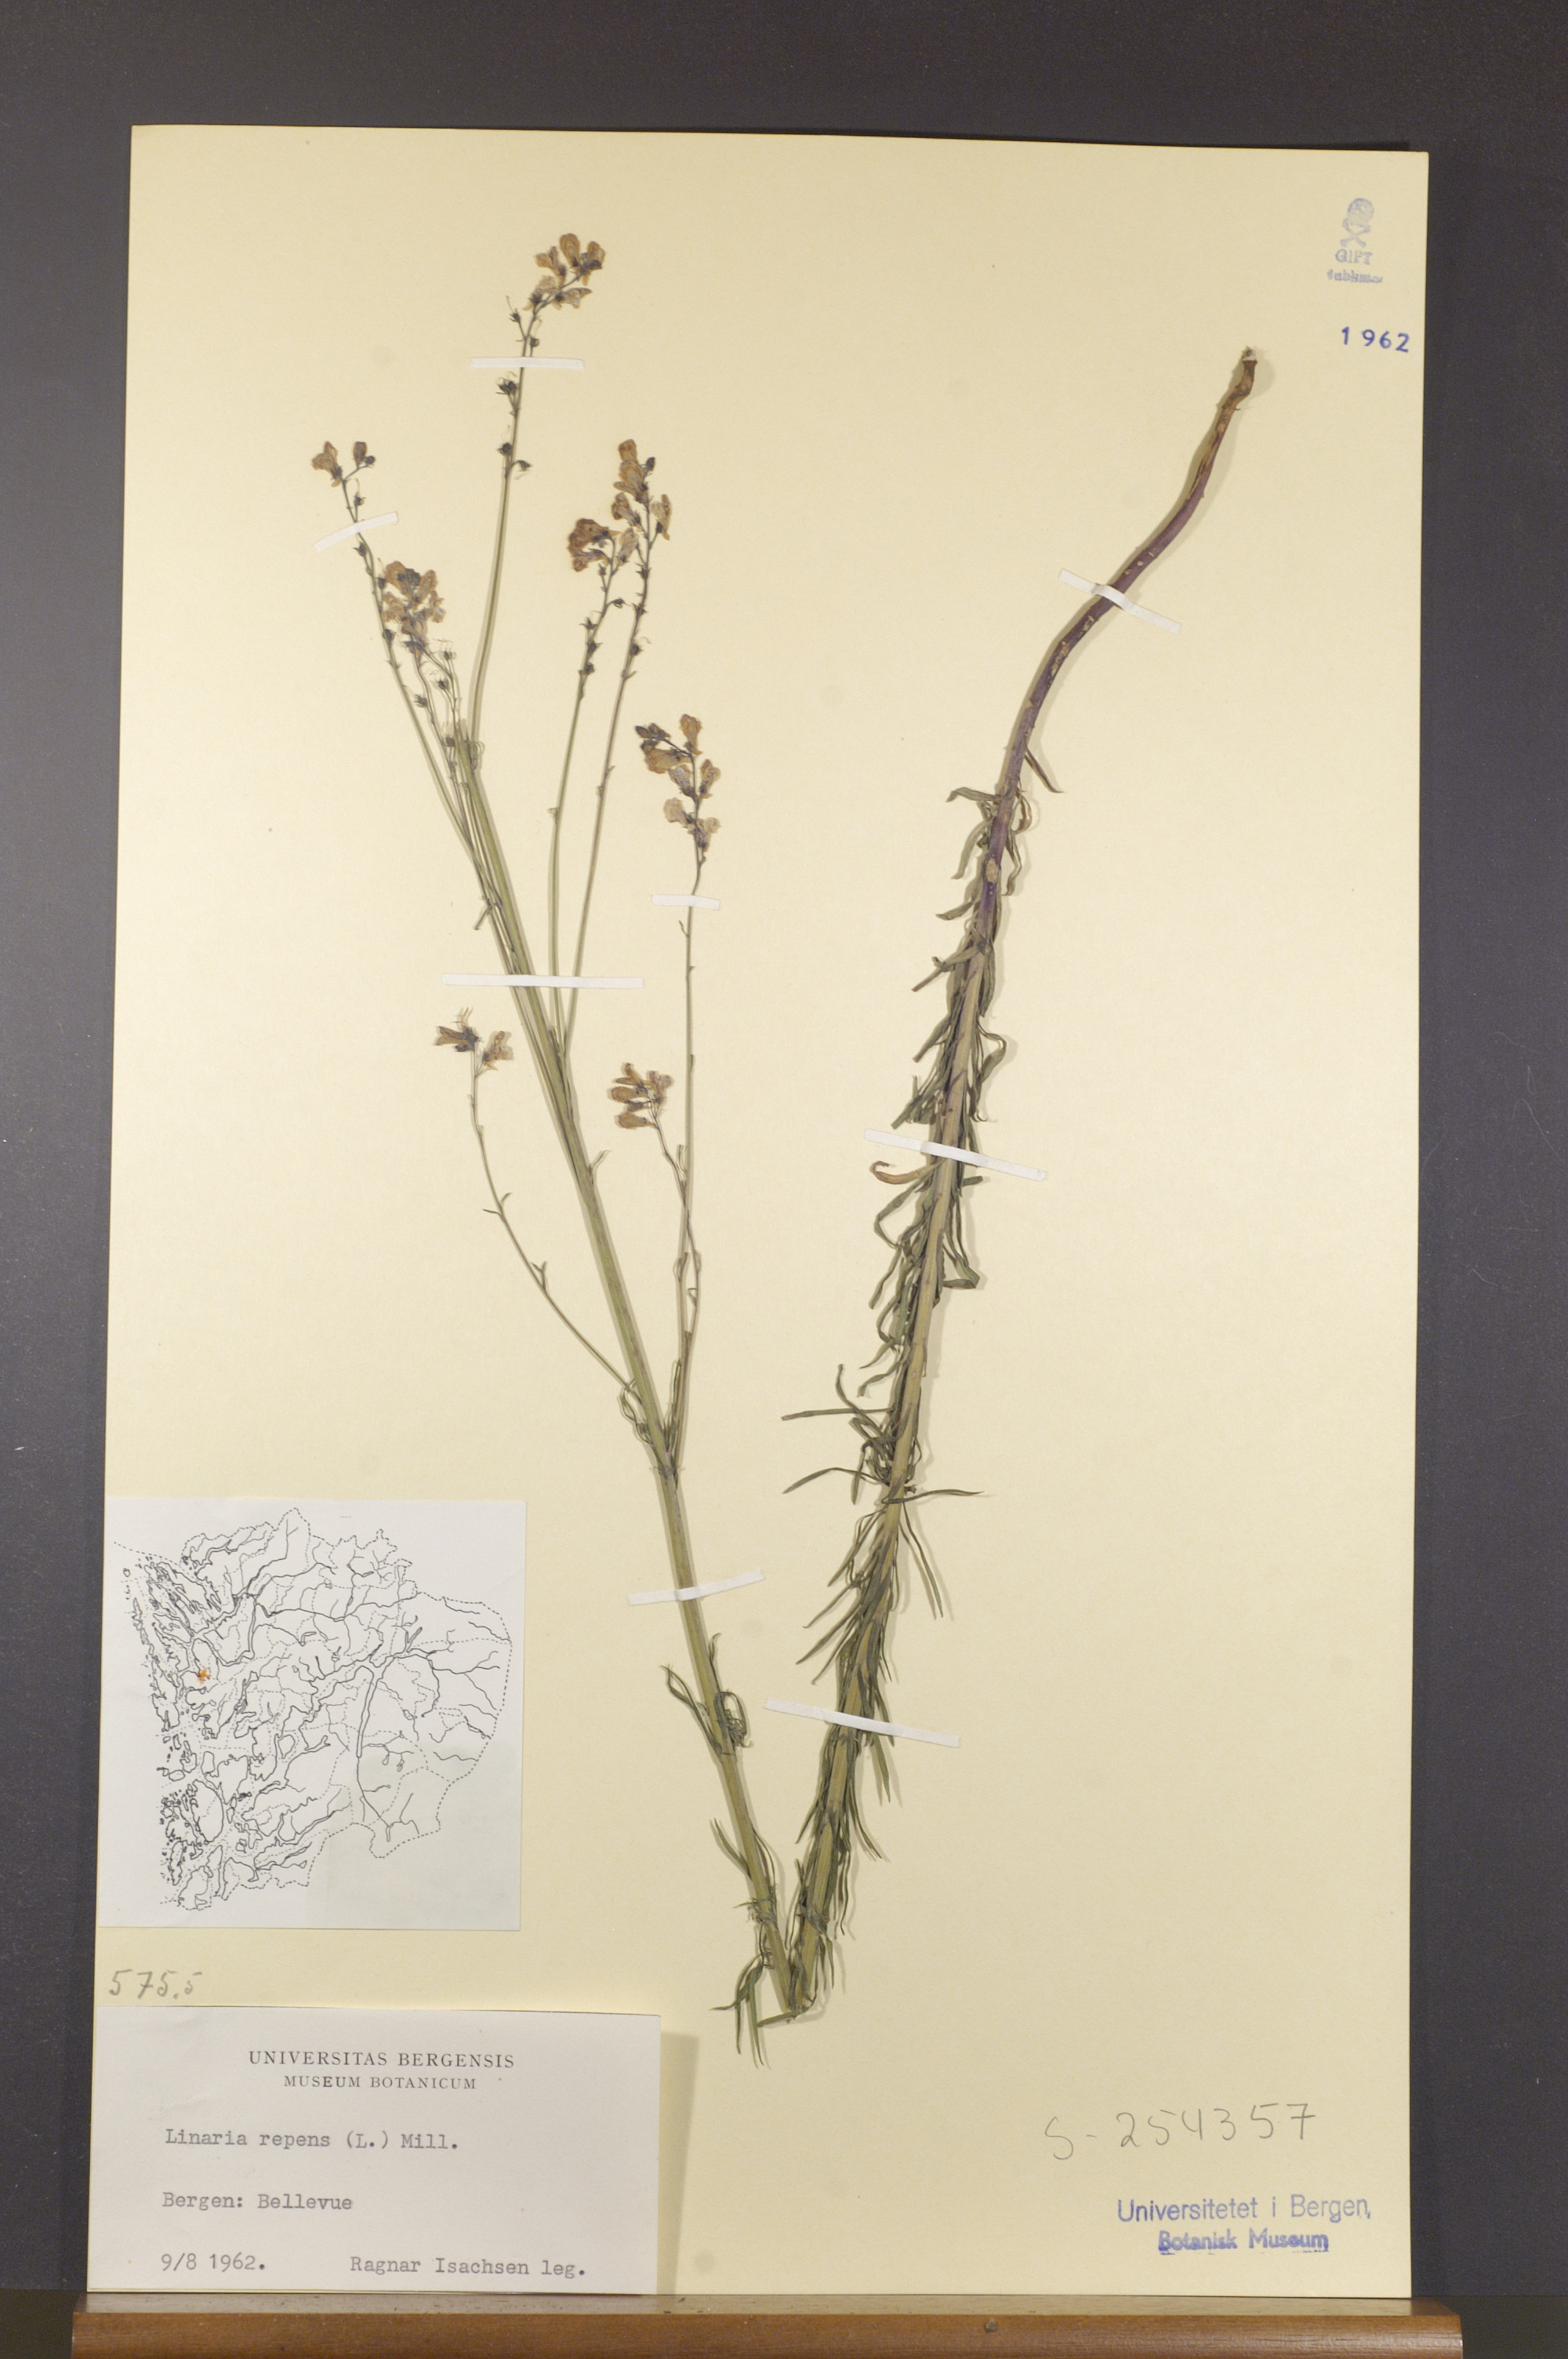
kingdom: Plantae
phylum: Tracheophyta
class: Magnoliopsida
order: Lamiales
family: Plantaginaceae
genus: Linaria
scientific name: Linaria repens
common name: Pale toadflax
